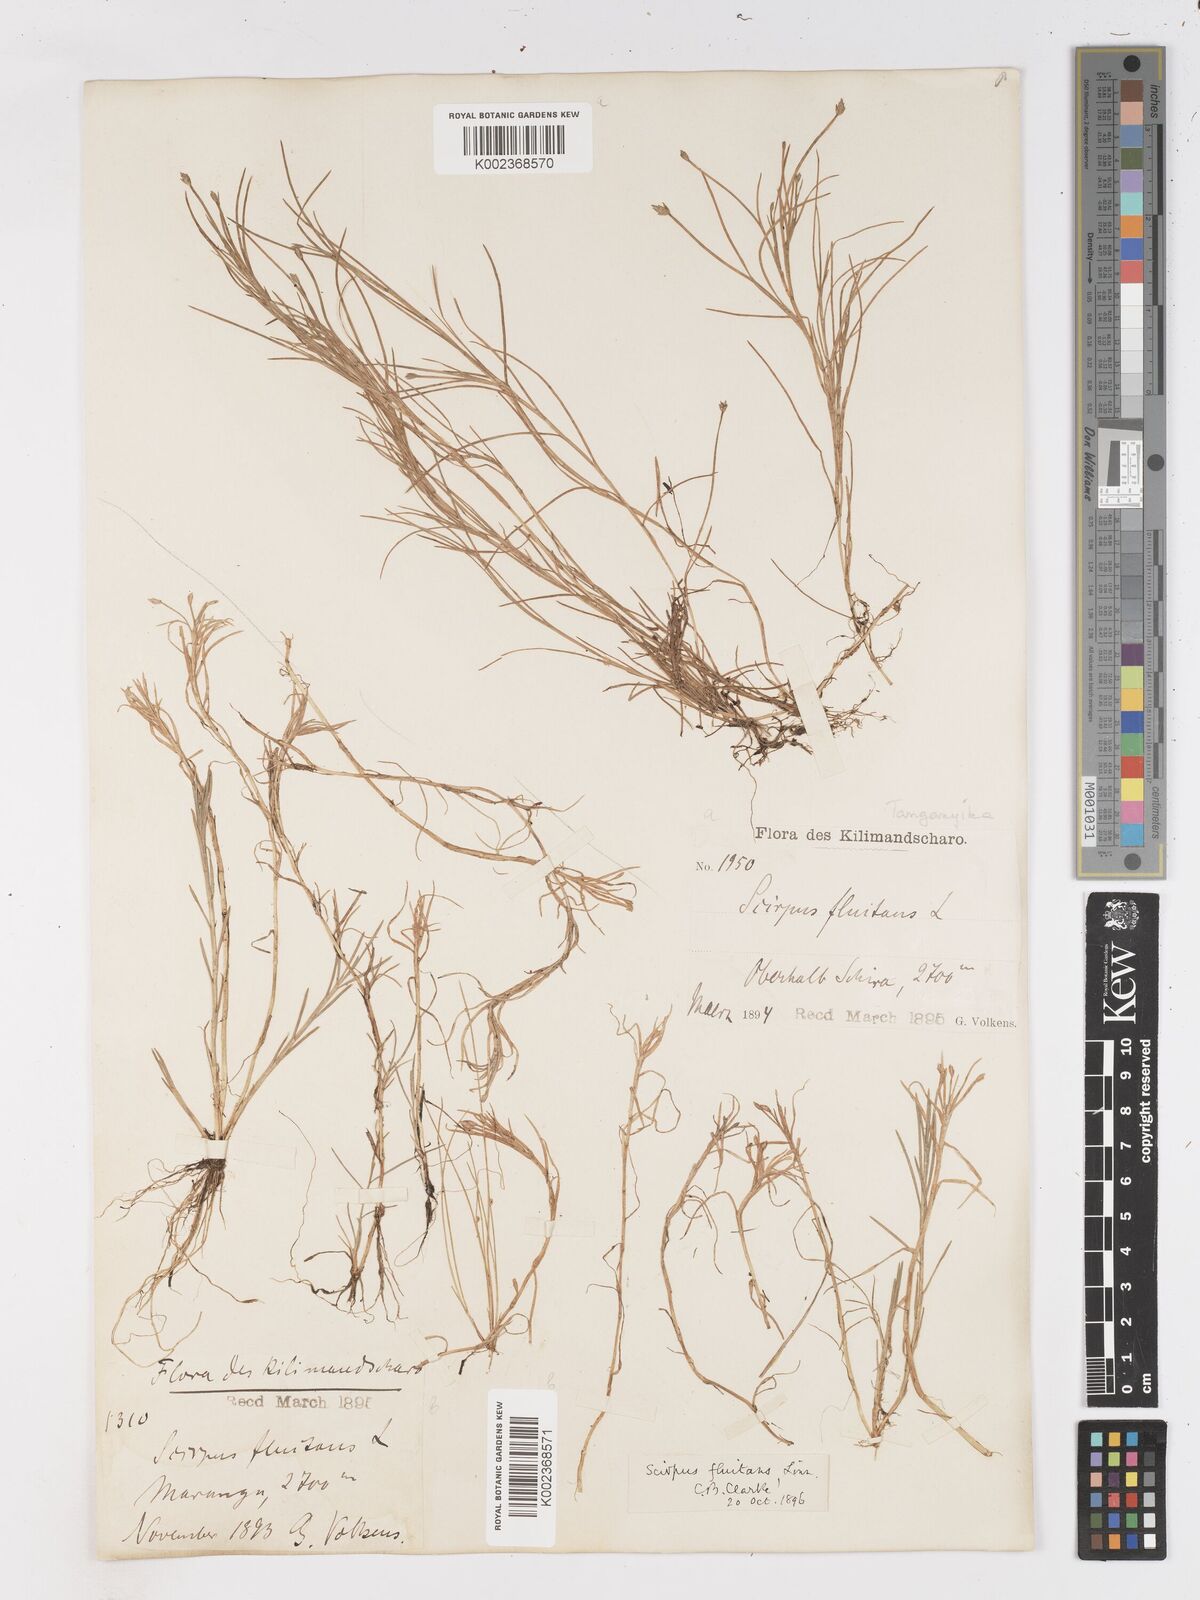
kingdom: Plantae
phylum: Tracheophyta
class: Liliopsida
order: Poales
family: Cyperaceae
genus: Isolepis
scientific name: Isolepis fluitans
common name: Floating club-rush
